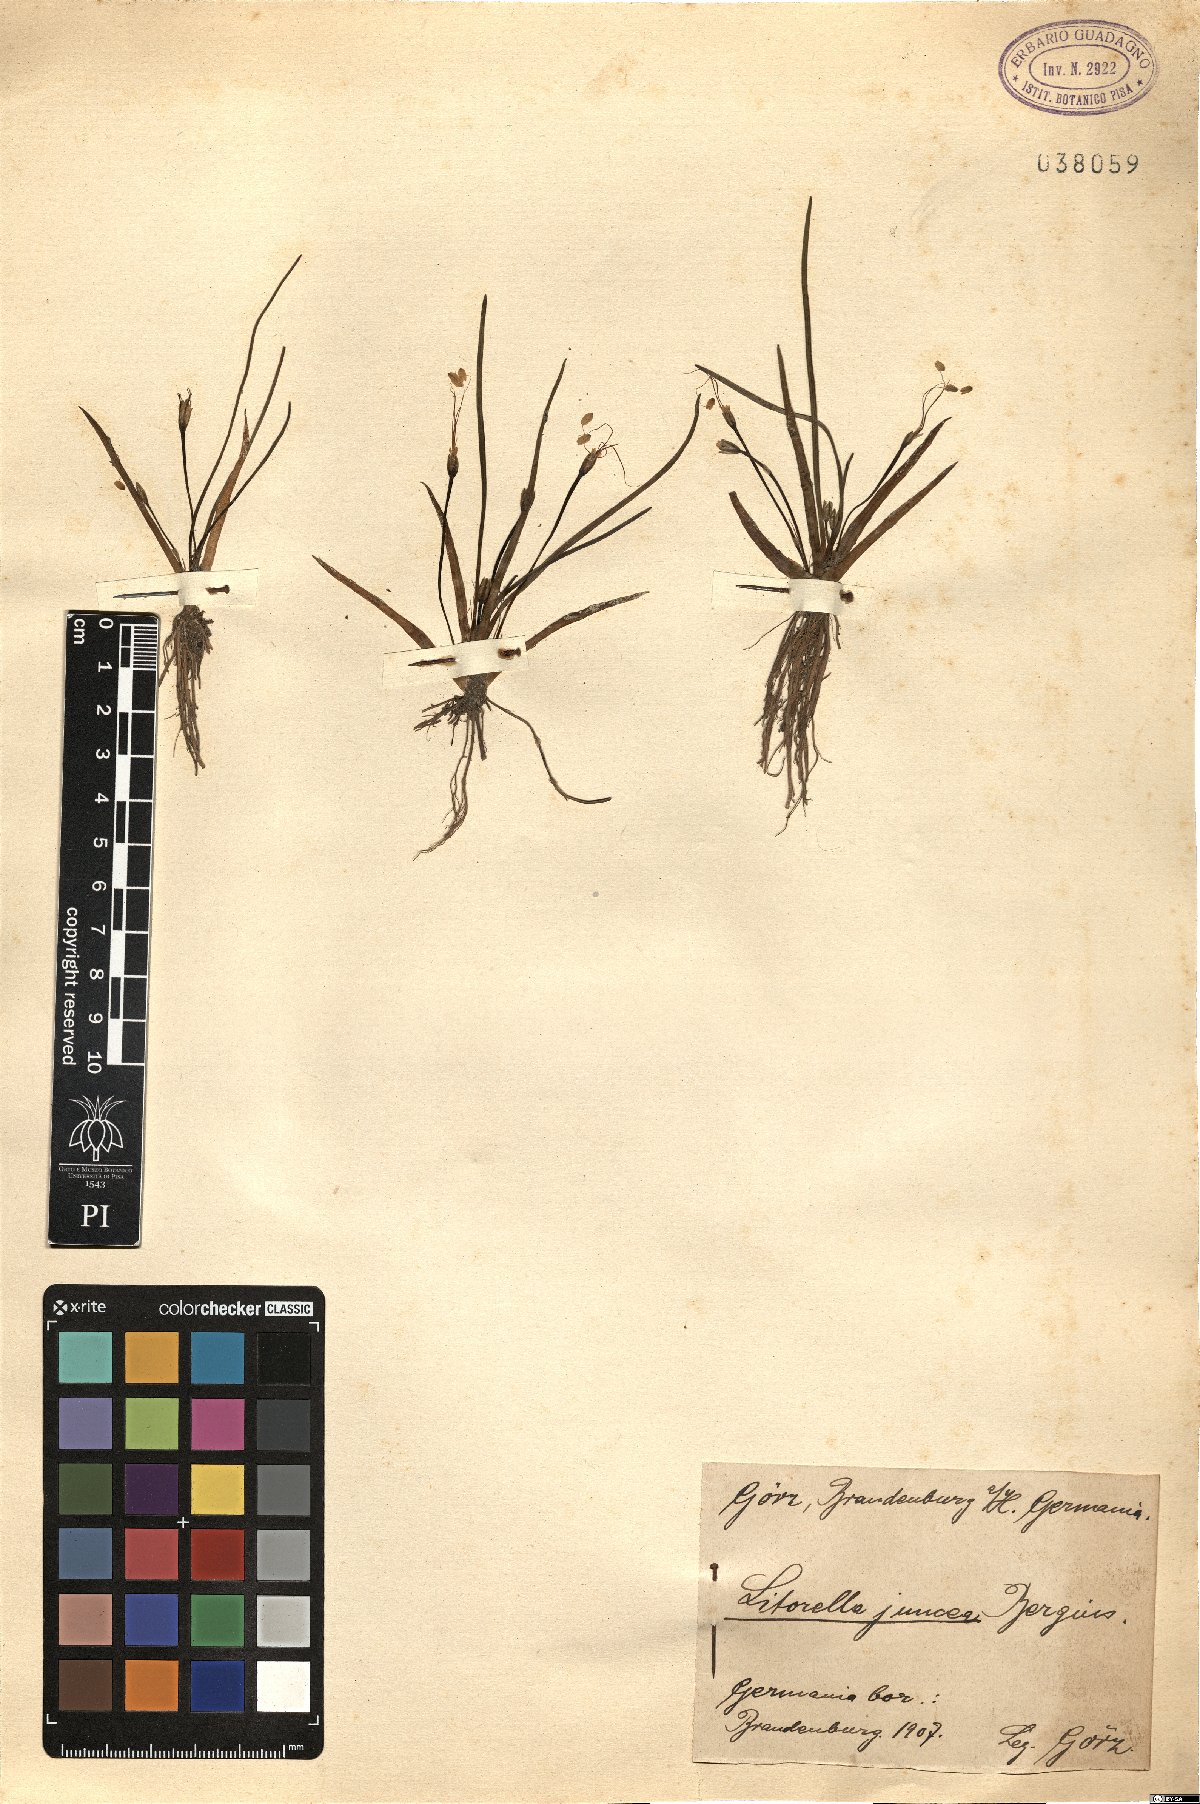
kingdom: Plantae
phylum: Tracheophyta
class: Magnoliopsida
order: Lamiales
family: Plantaginaceae
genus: Littorella
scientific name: Littorella uniflora
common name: Shoreweed
